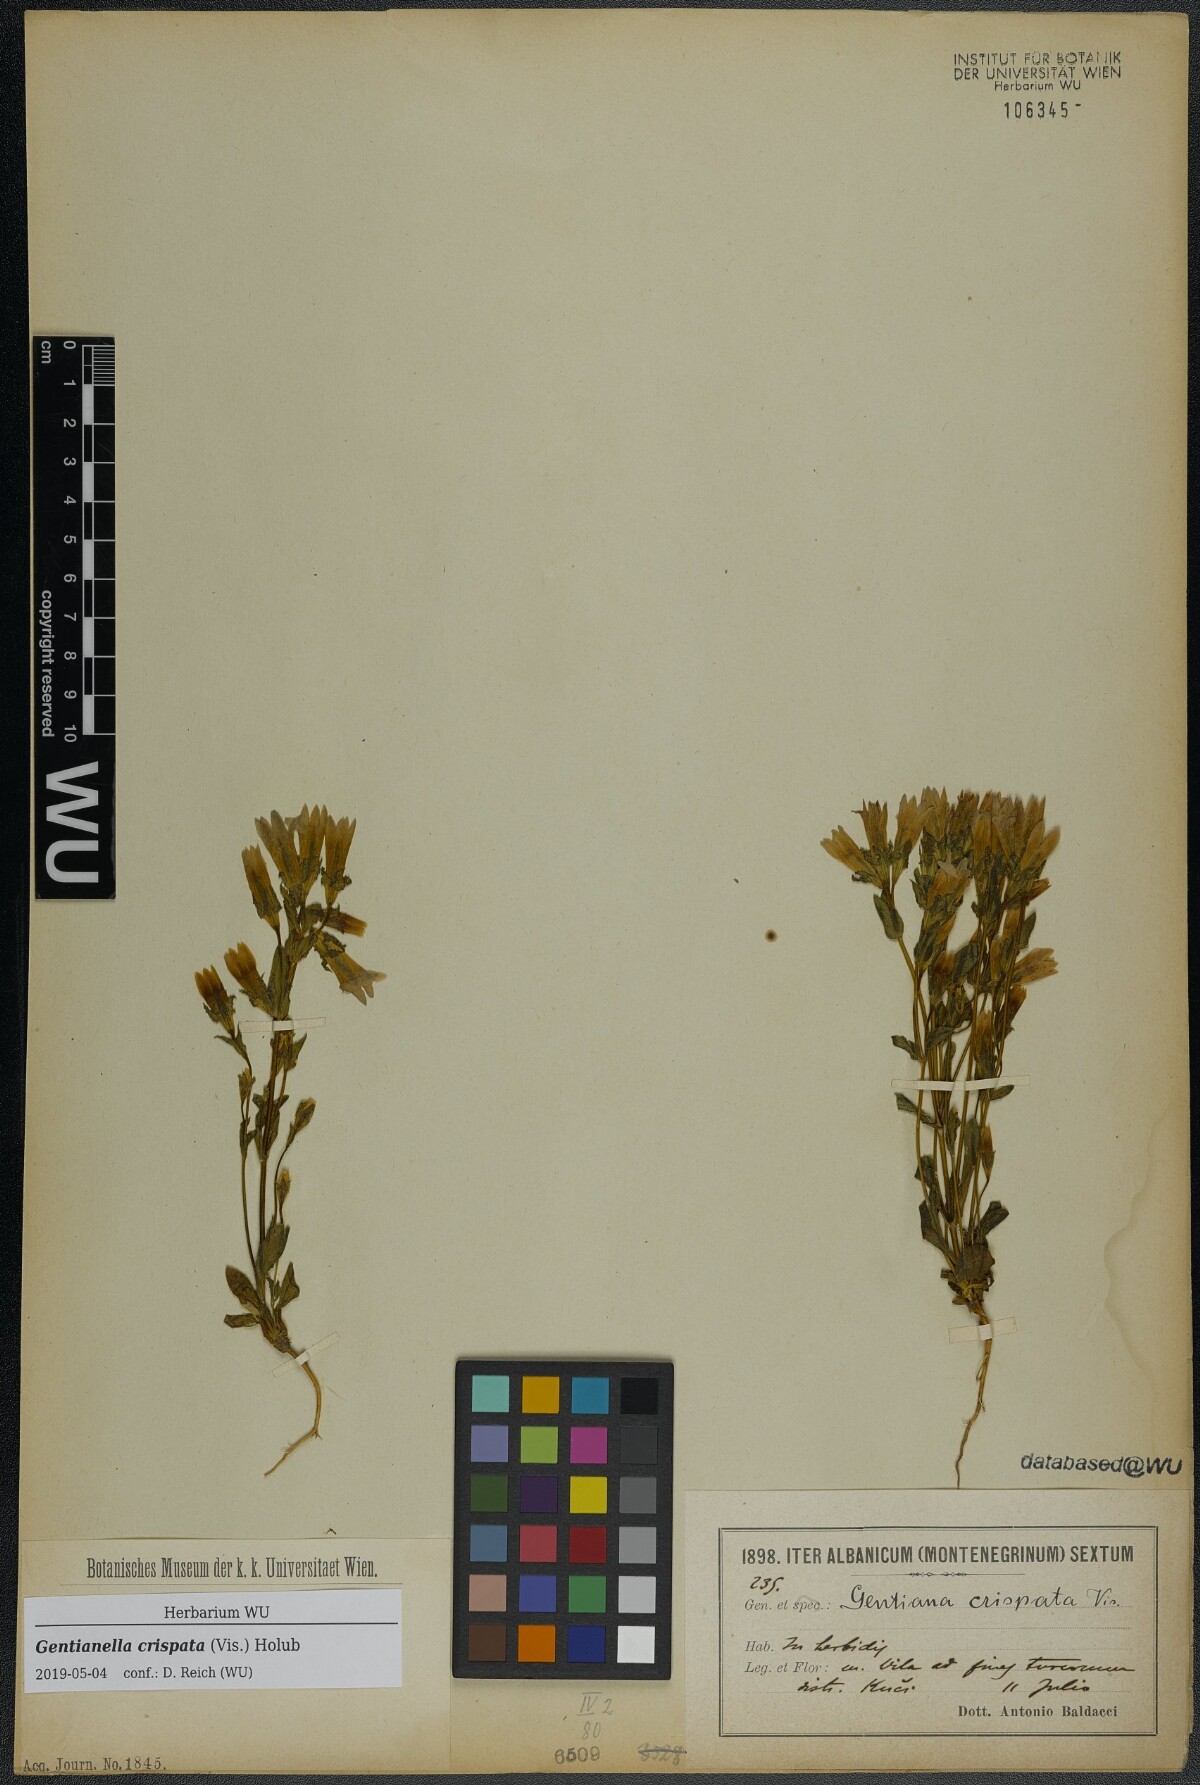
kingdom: Plantae
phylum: Tracheophyta
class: Magnoliopsida
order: Gentianales
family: Gentianaceae
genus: Gentianella
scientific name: Gentianella crispata
